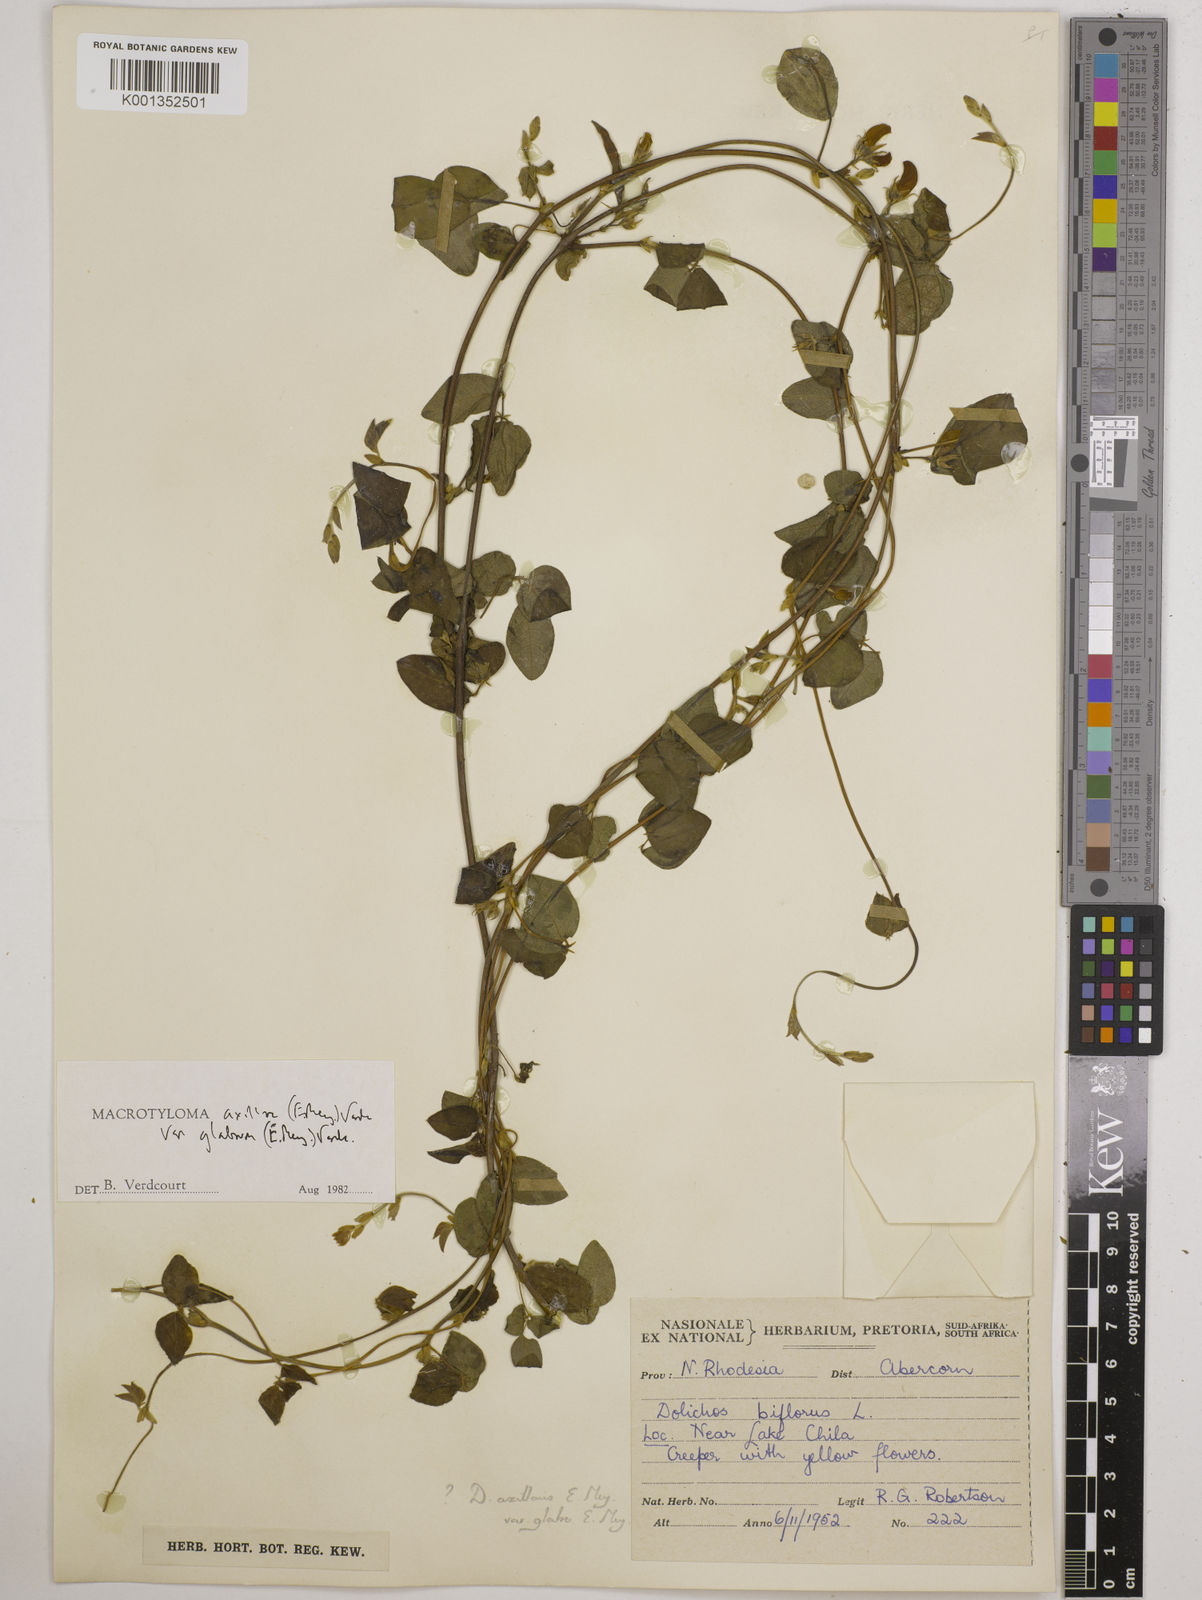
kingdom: Plantae
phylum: Tracheophyta
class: Magnoliopsida
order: Fabales
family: Fabaceae
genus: Macrotyloma
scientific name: Macrotyloma
